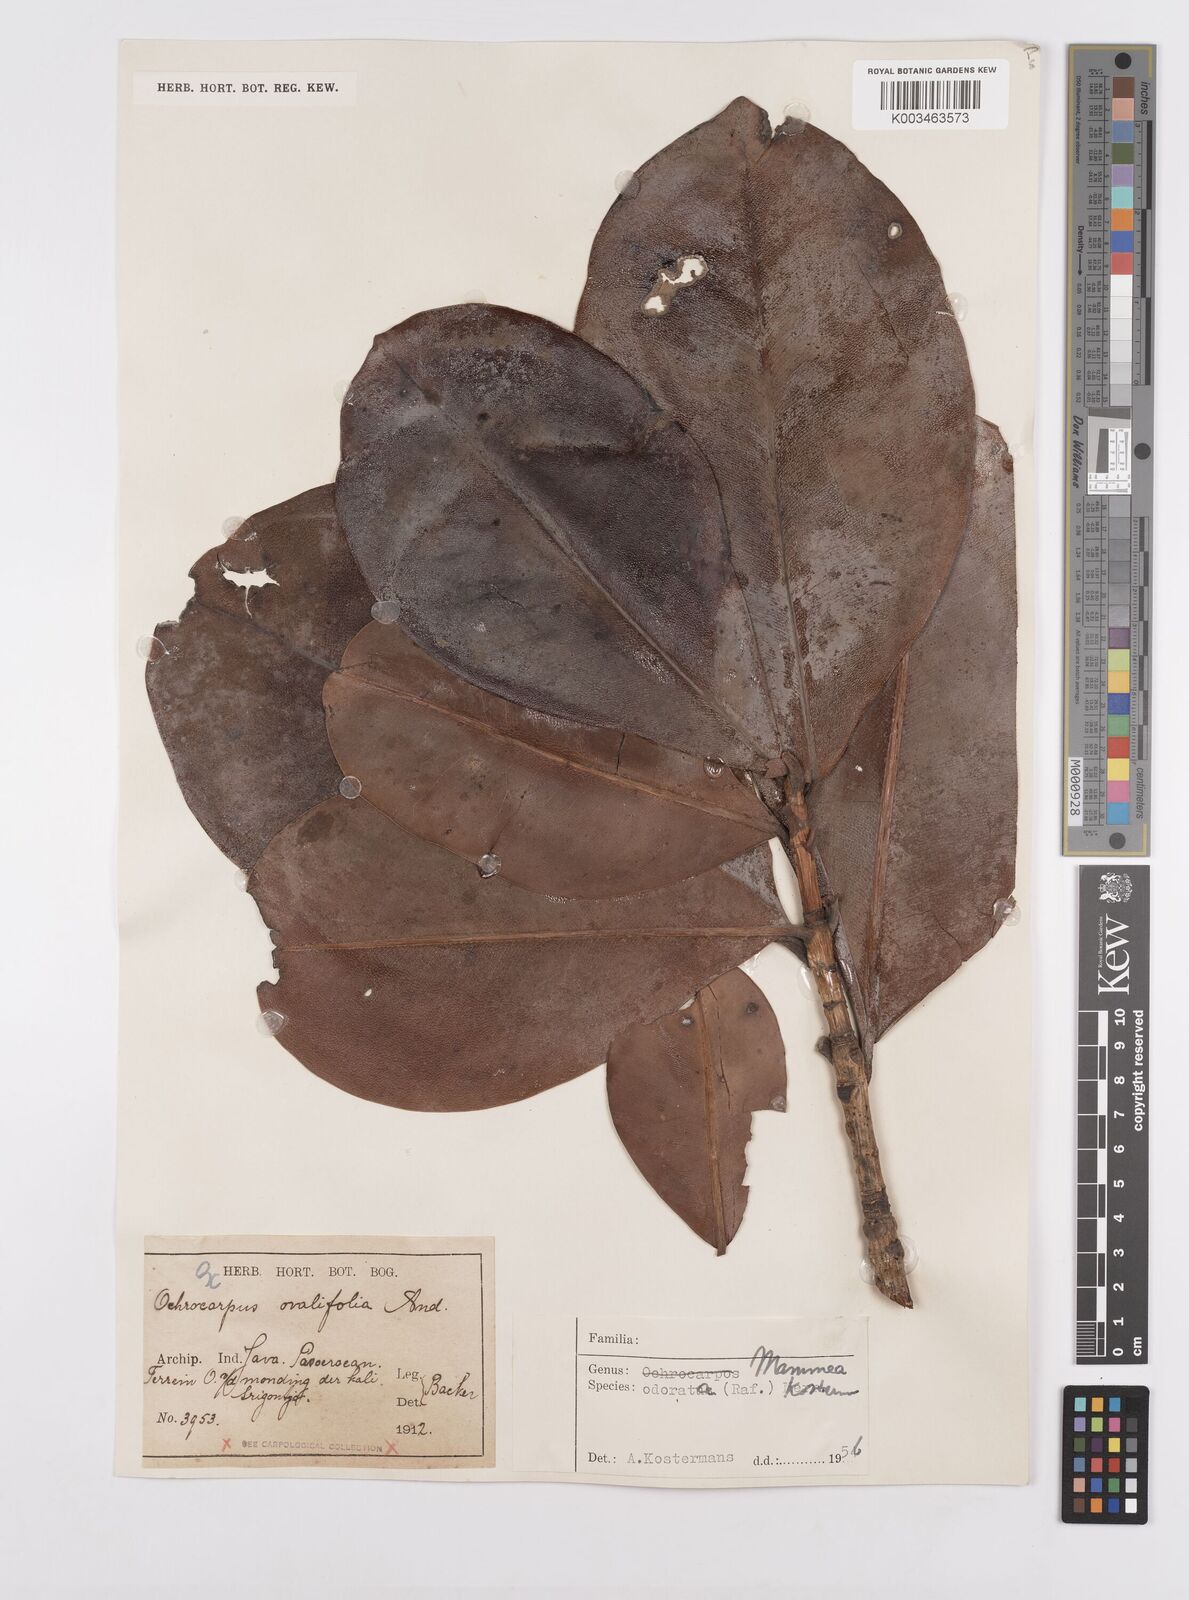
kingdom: Plantae
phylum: Tracheophyta
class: Magnoliopsida
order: Malpighiales
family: Calophyllaceae
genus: Mammea
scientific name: Mammea odorata
